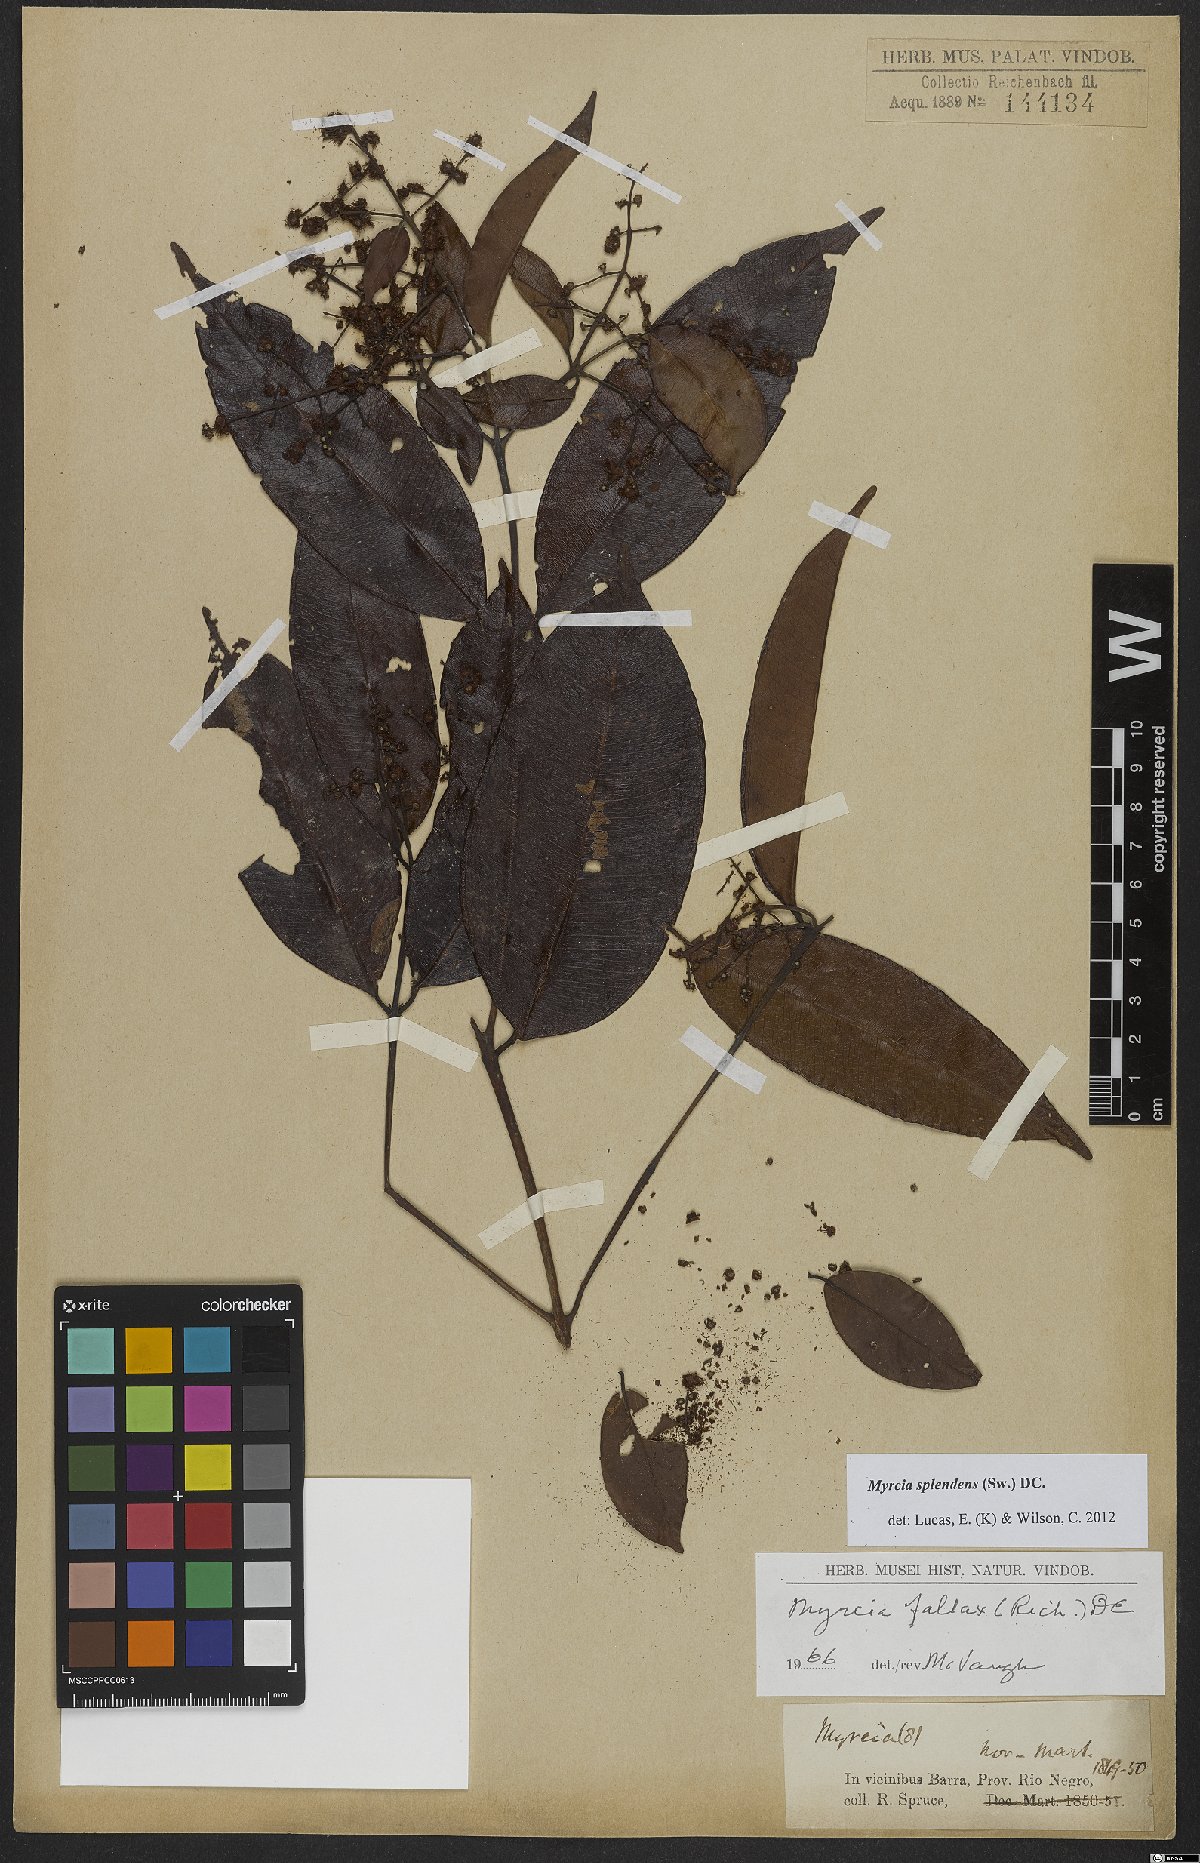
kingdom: Plantae
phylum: Tracheophyta
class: Magnoliopsida
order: Myrtales
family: Myrtaceae
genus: Myrcia
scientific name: Myrcia splendens
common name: Surinam cherry
